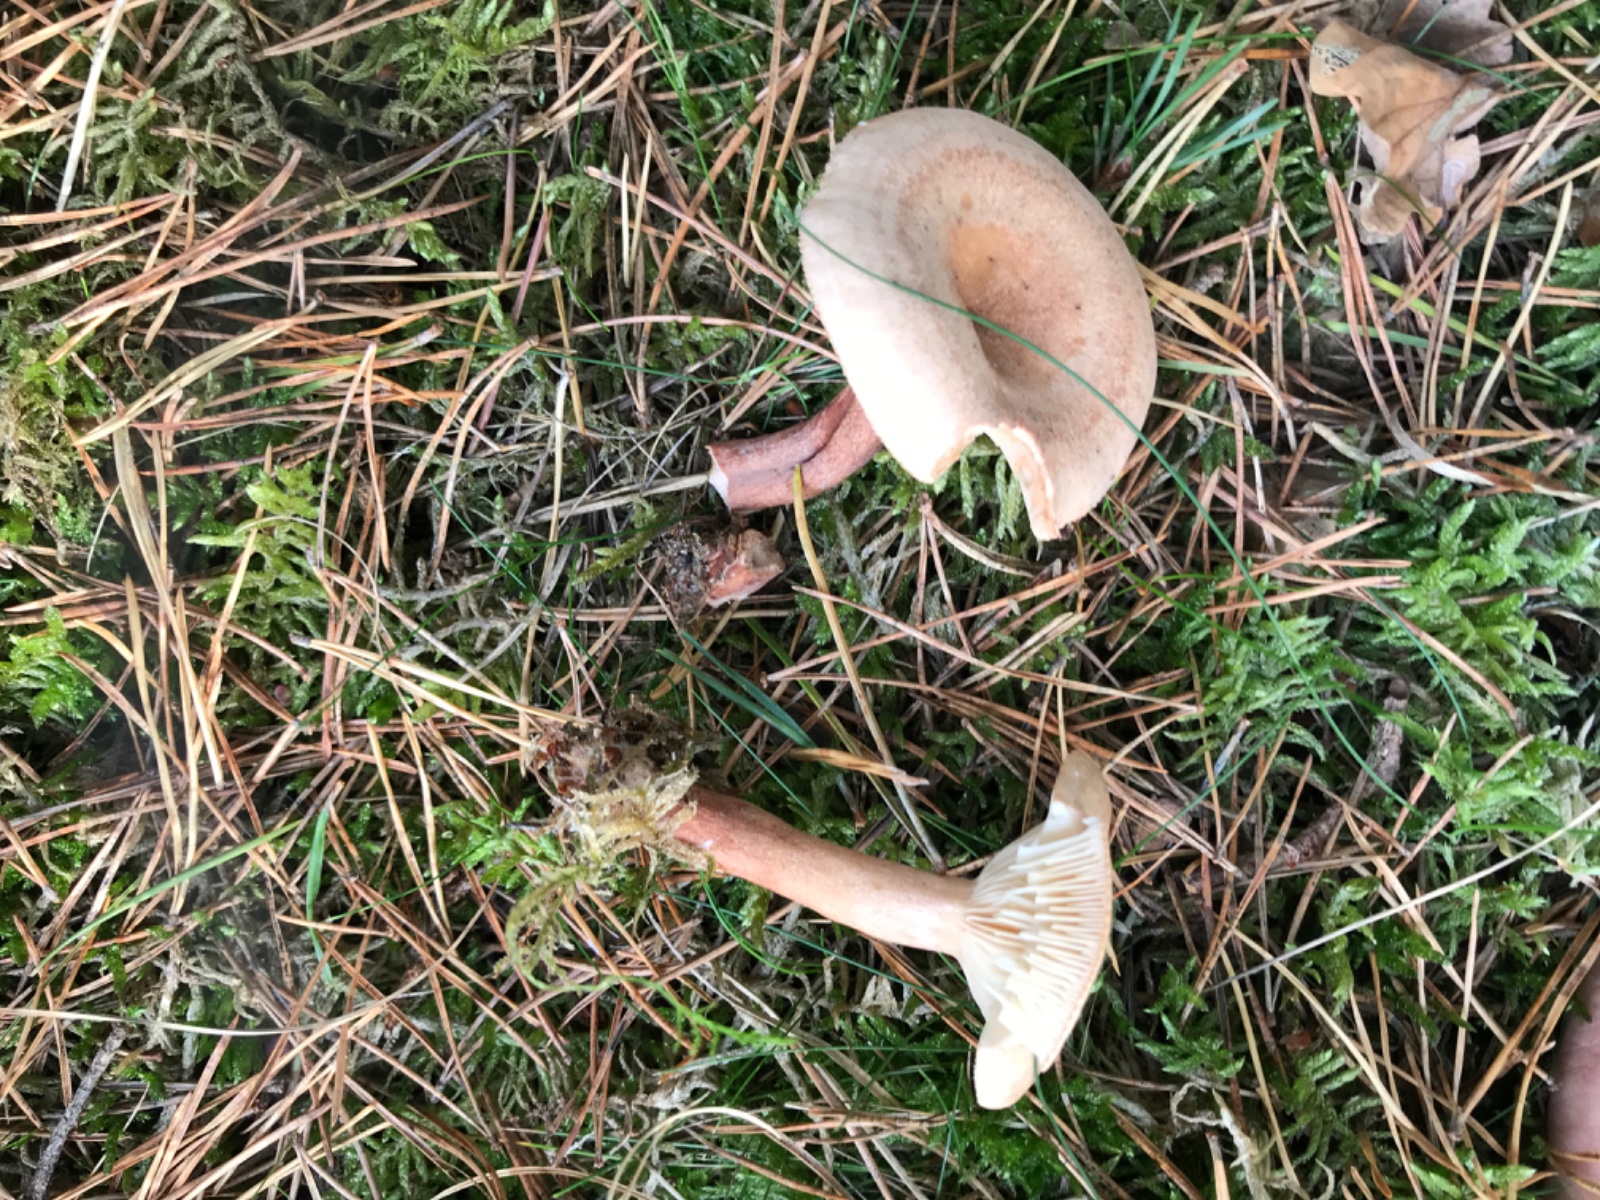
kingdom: Fungi
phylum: Basidiomycota
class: Agaricomycetes
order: Russulales
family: Russulaceae
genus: Lactarius
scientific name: Lactarius helvus
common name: mose-mælkehat
